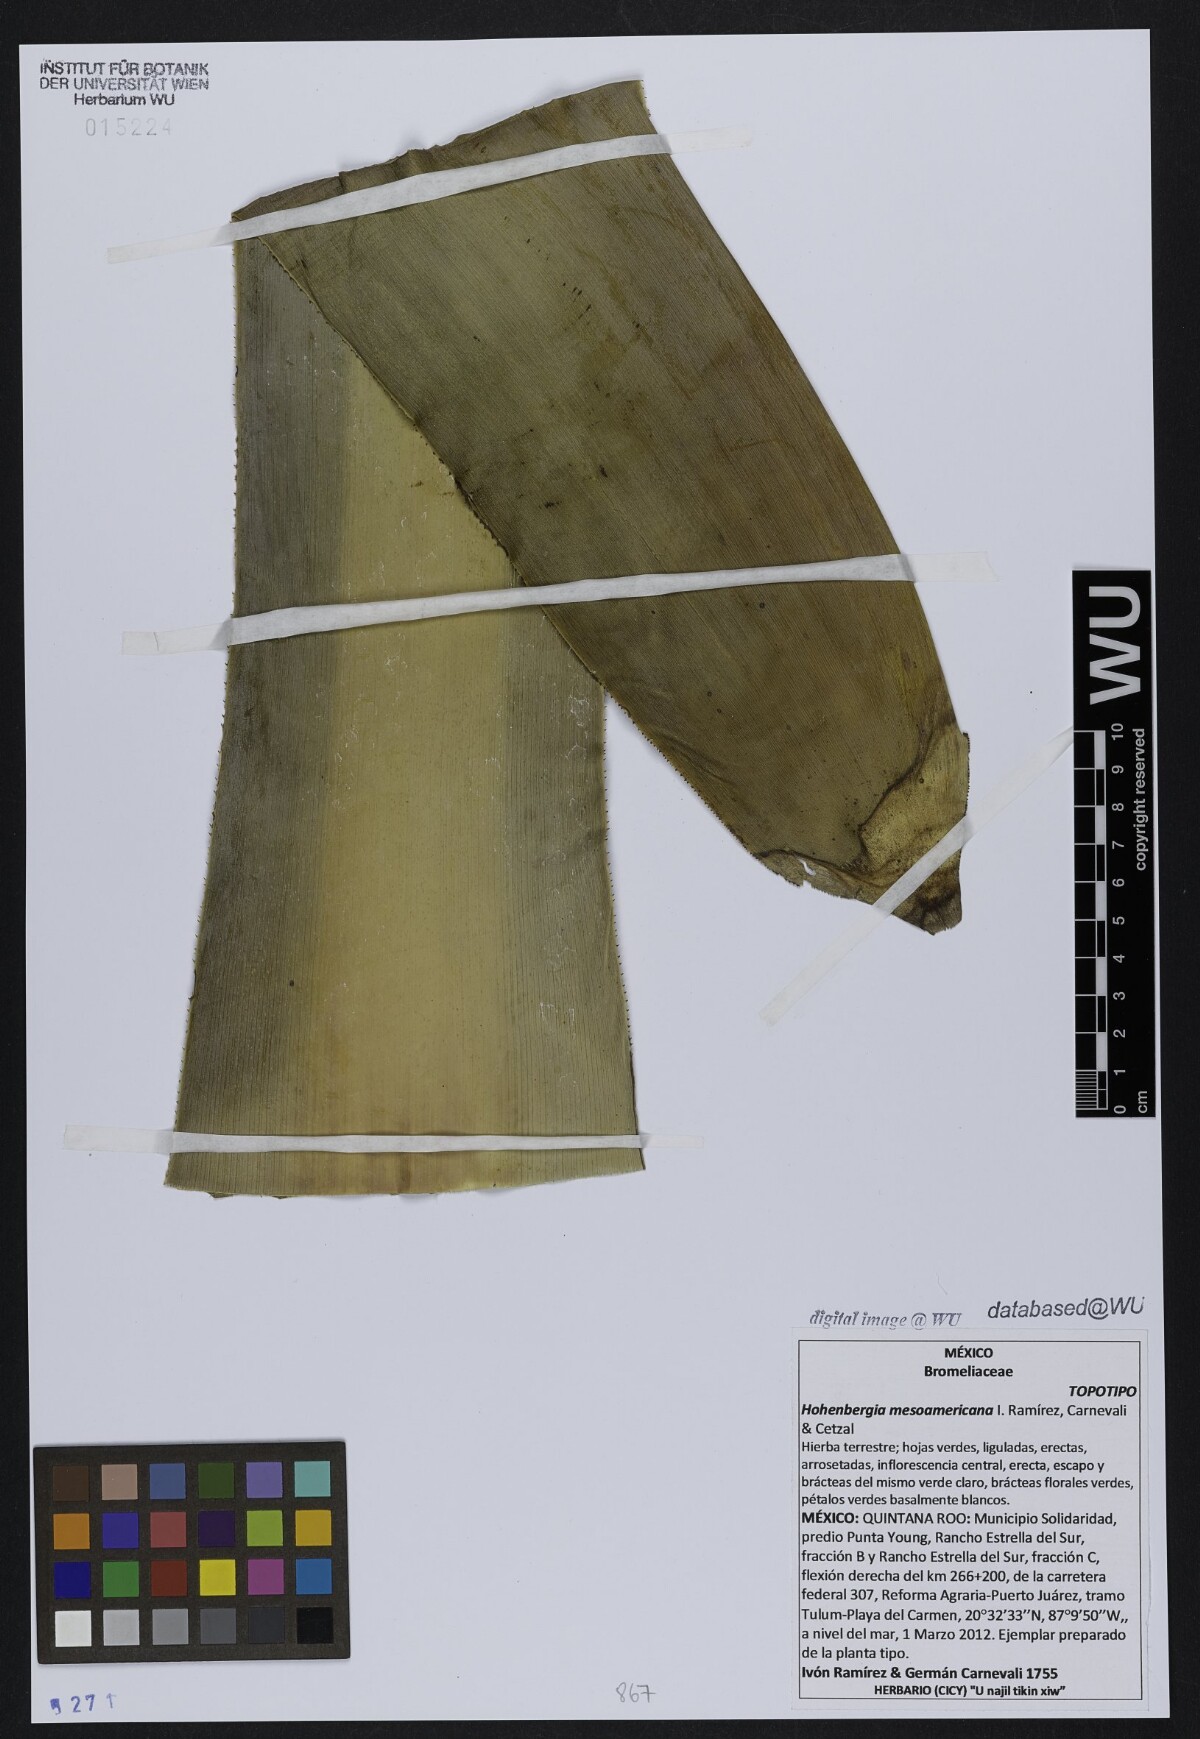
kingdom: Plantae
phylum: Tracheophyta
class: Liliopsida
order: Poales
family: Bromeliaceae
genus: Wittmackia
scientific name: Wittmackia mesoamericana
